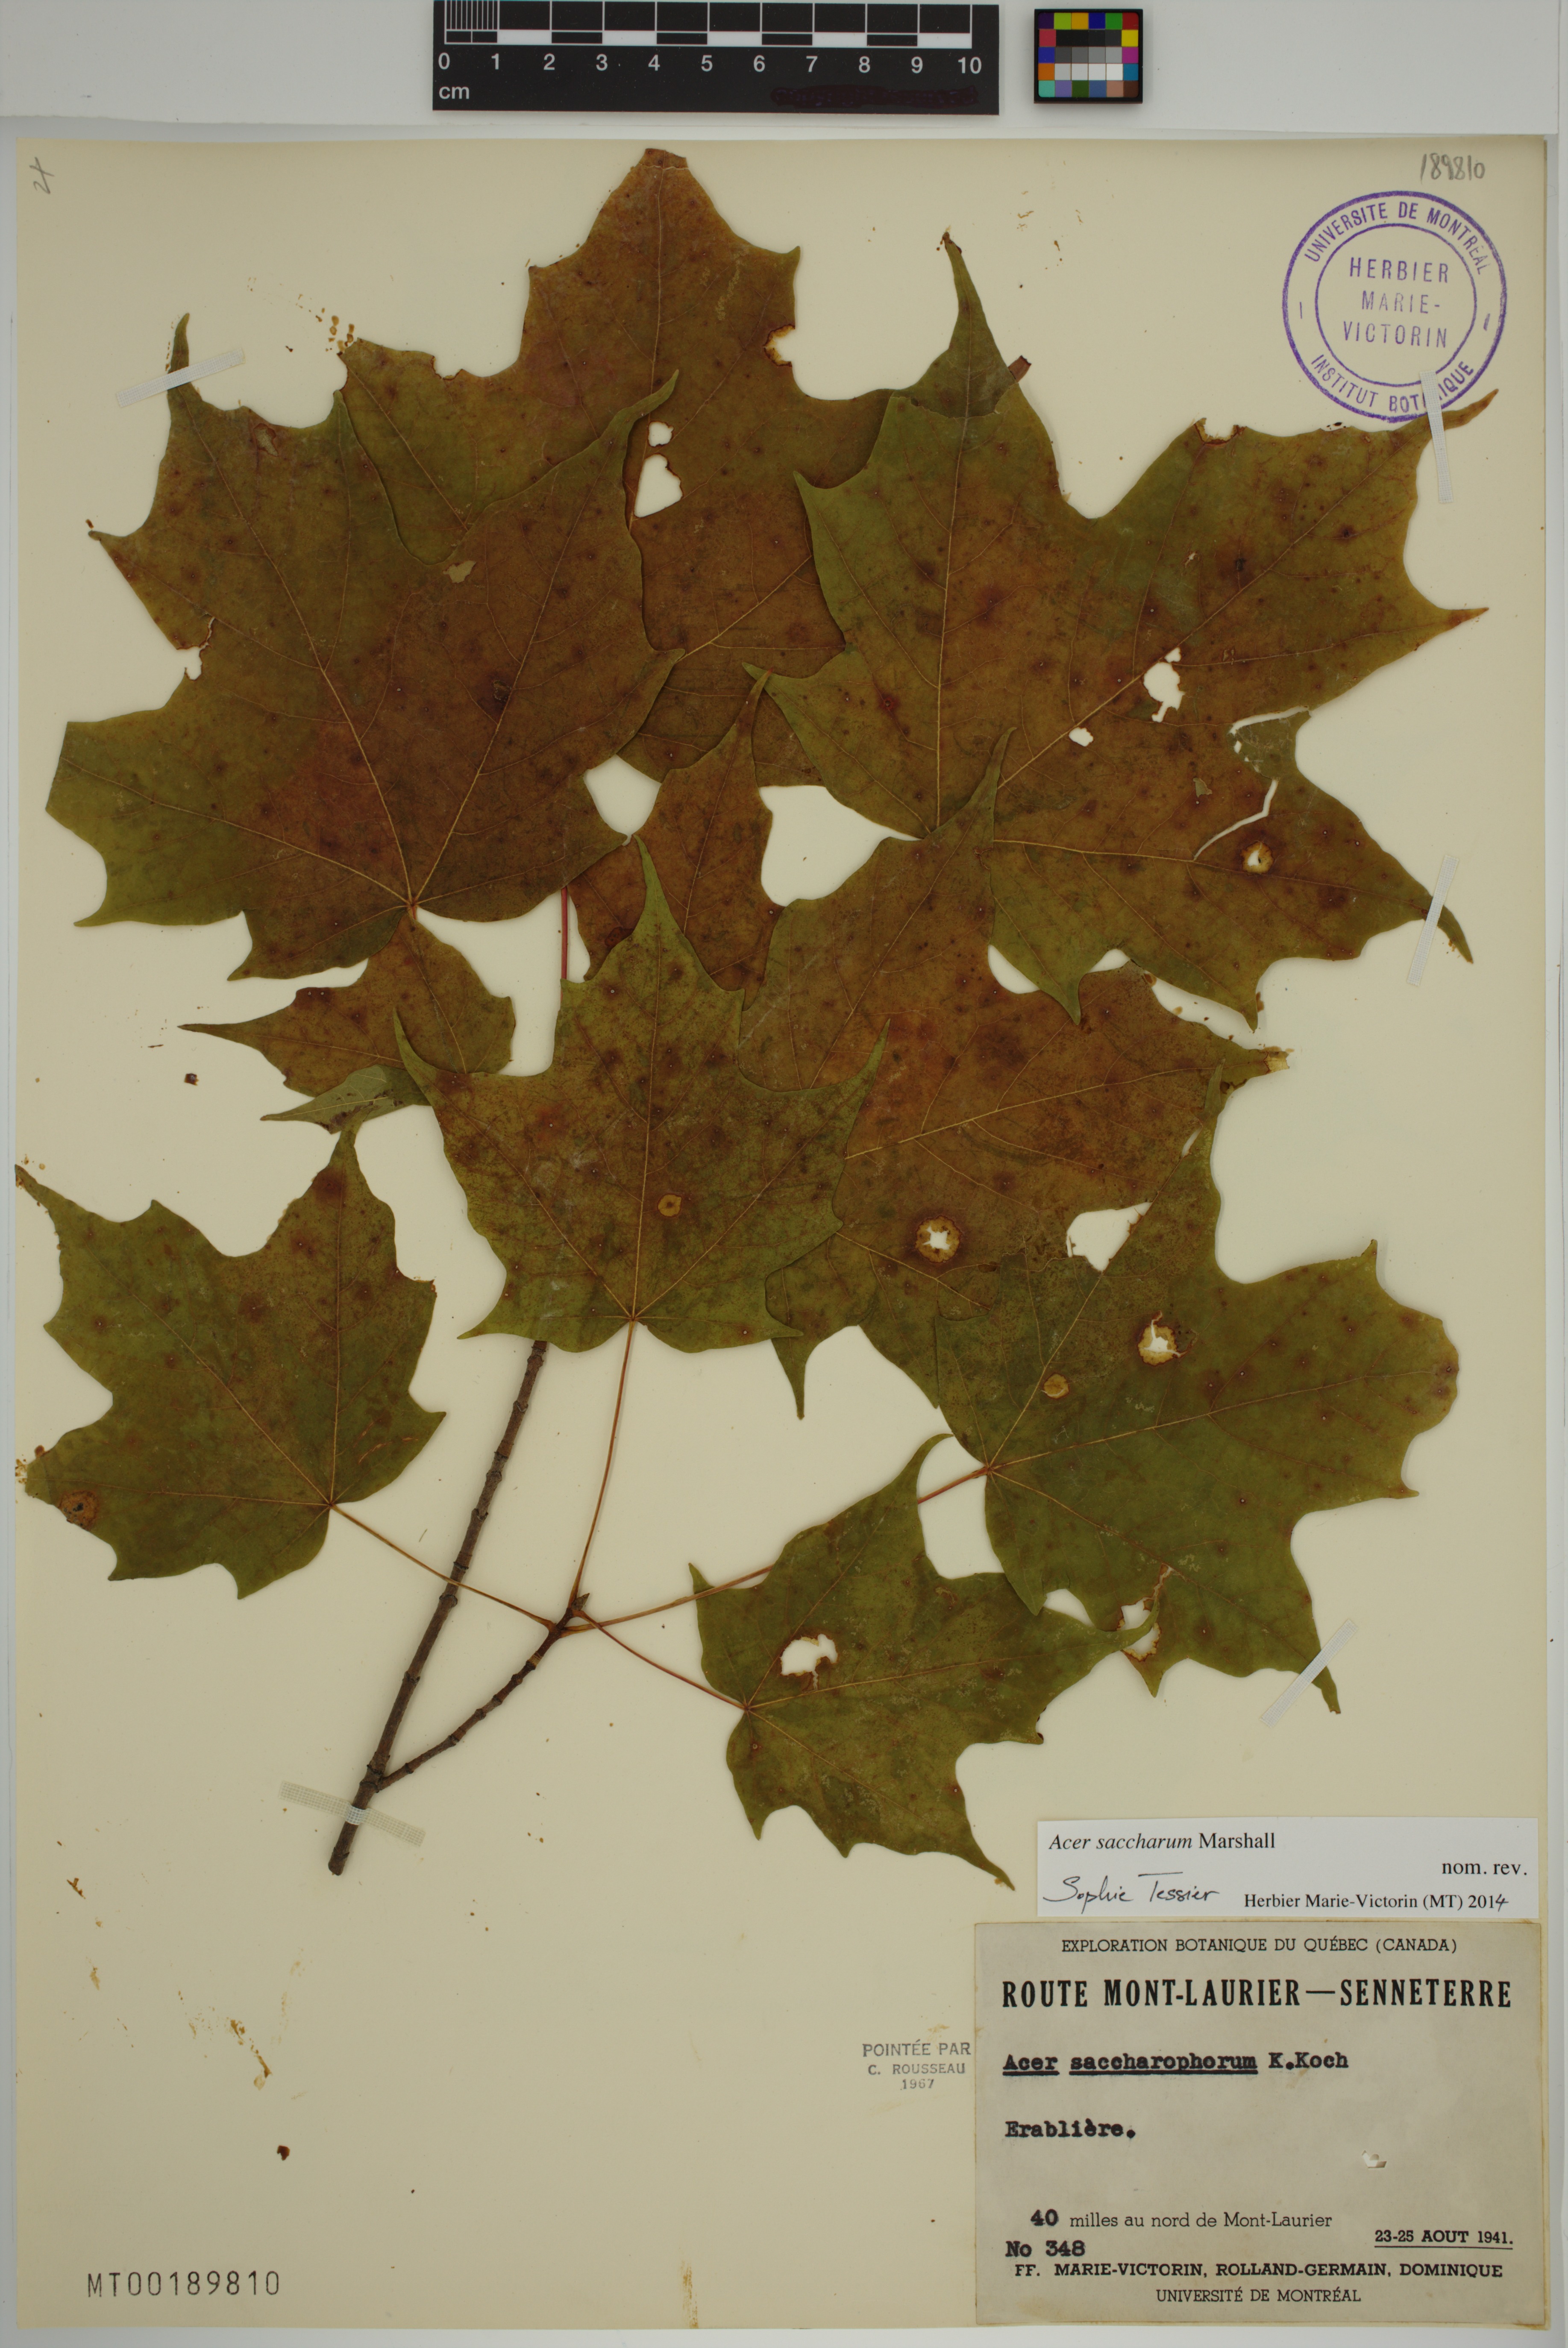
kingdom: Plantae
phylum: Tracheophyta
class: Magnoliopsida
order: Sapindales
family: Sapindaceae
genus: Acer
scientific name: Acer saccharum
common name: Sugar maple
